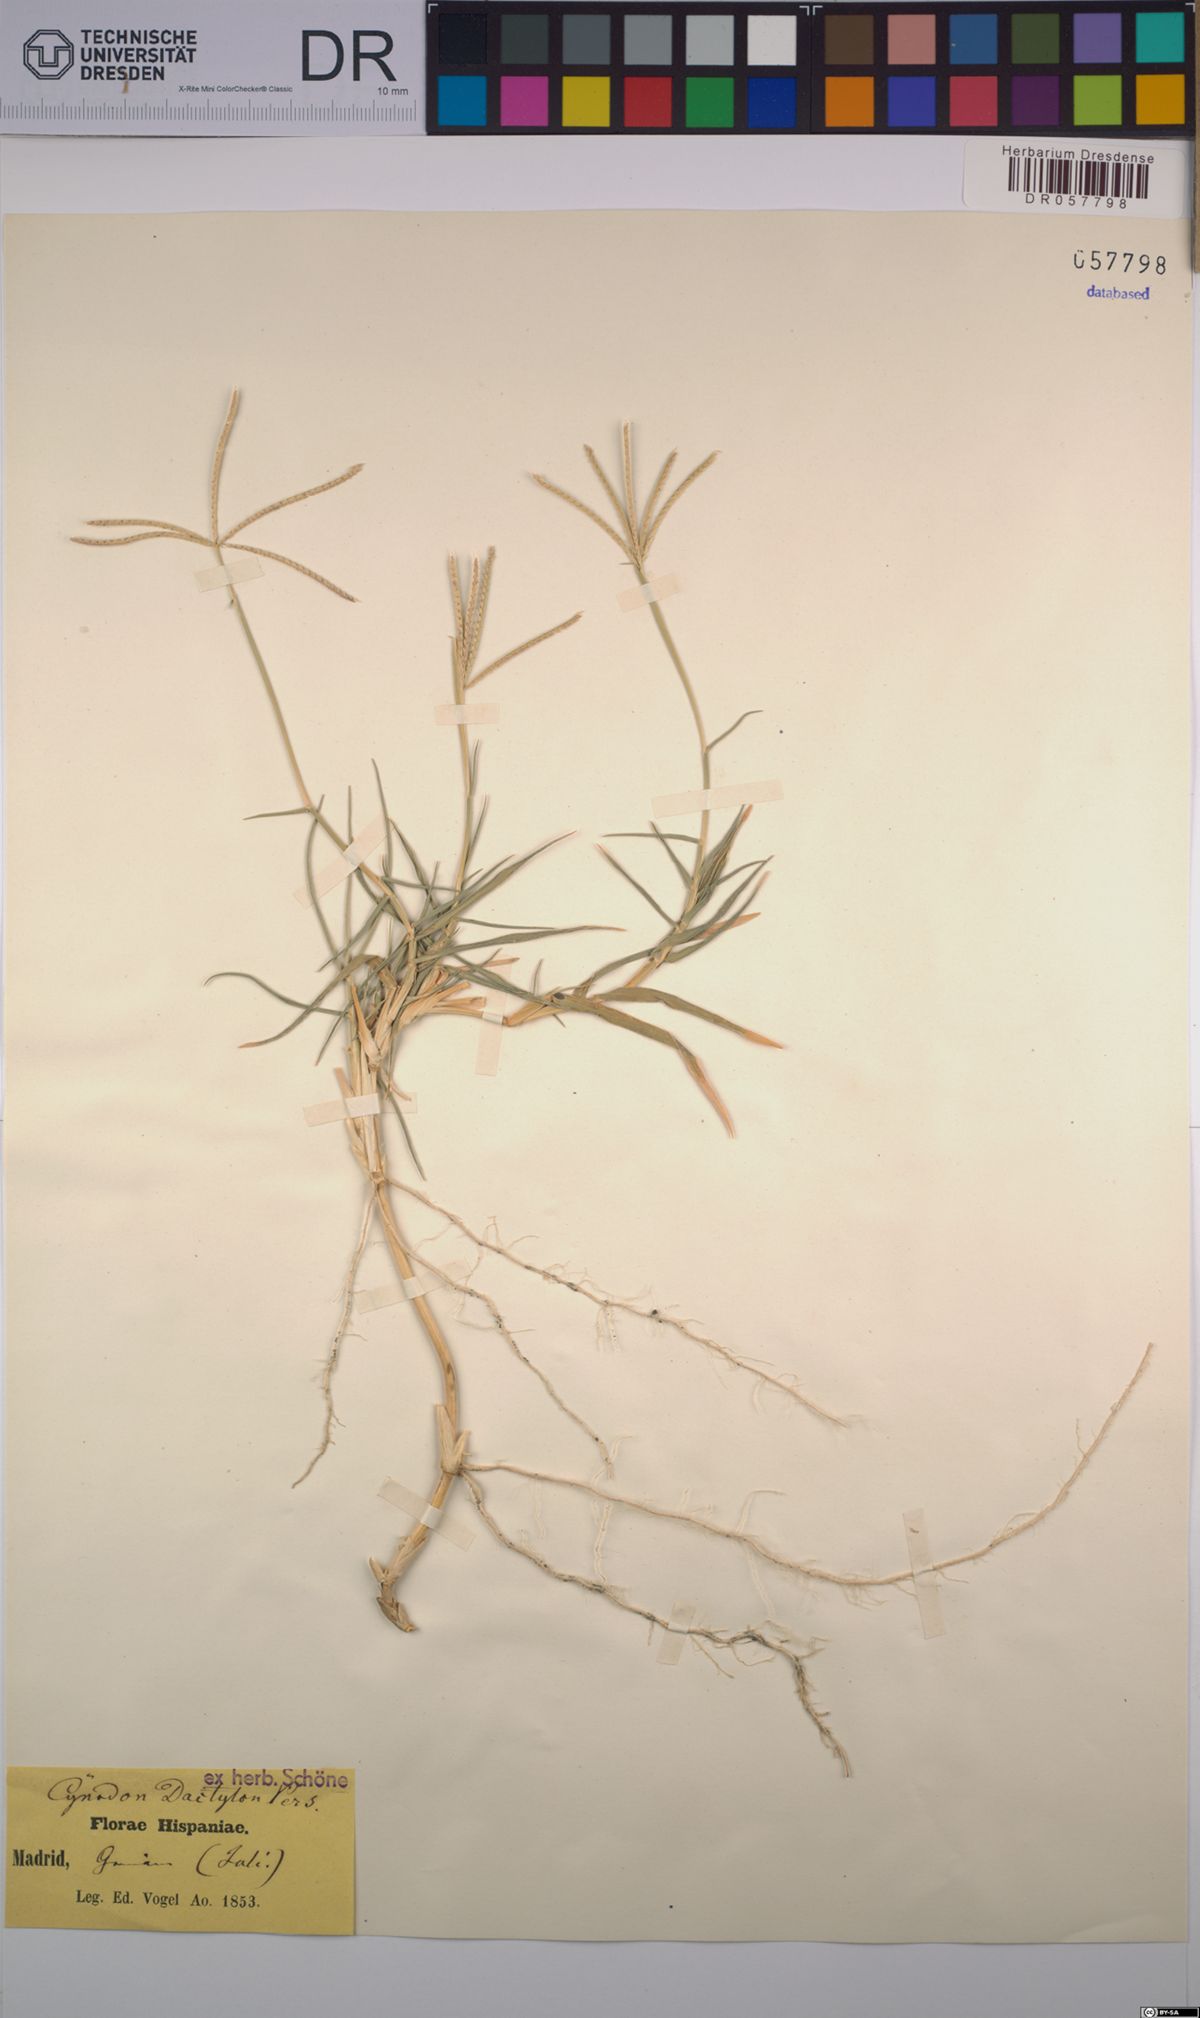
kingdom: Plantae
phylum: Tracheophyta
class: Liliopsida
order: Poales
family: Poaceae
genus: Cynodon
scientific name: Cynodon dactylon
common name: Bermuda grass
